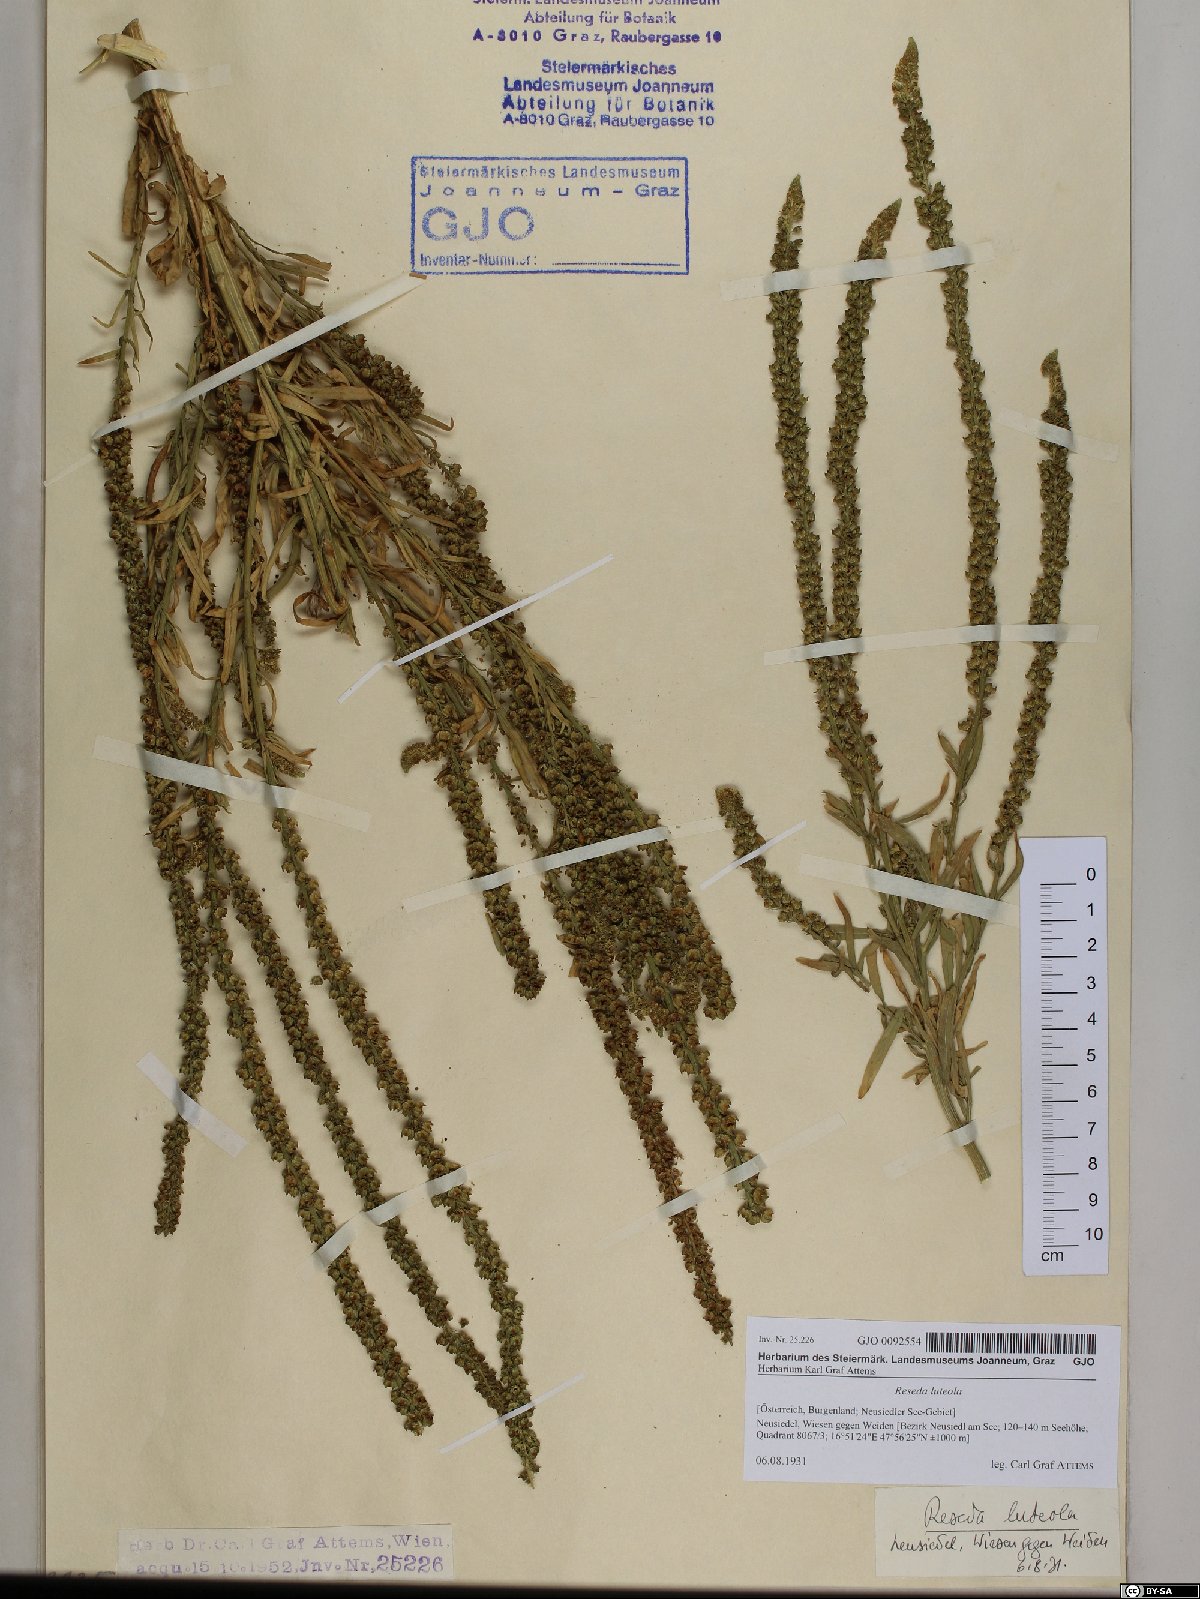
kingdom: Plantae
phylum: Tracheophyta
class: Magnoliopsida
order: Brassicales
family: Resedaceae
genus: Reseda
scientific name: Reseda luteola
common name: Weld
